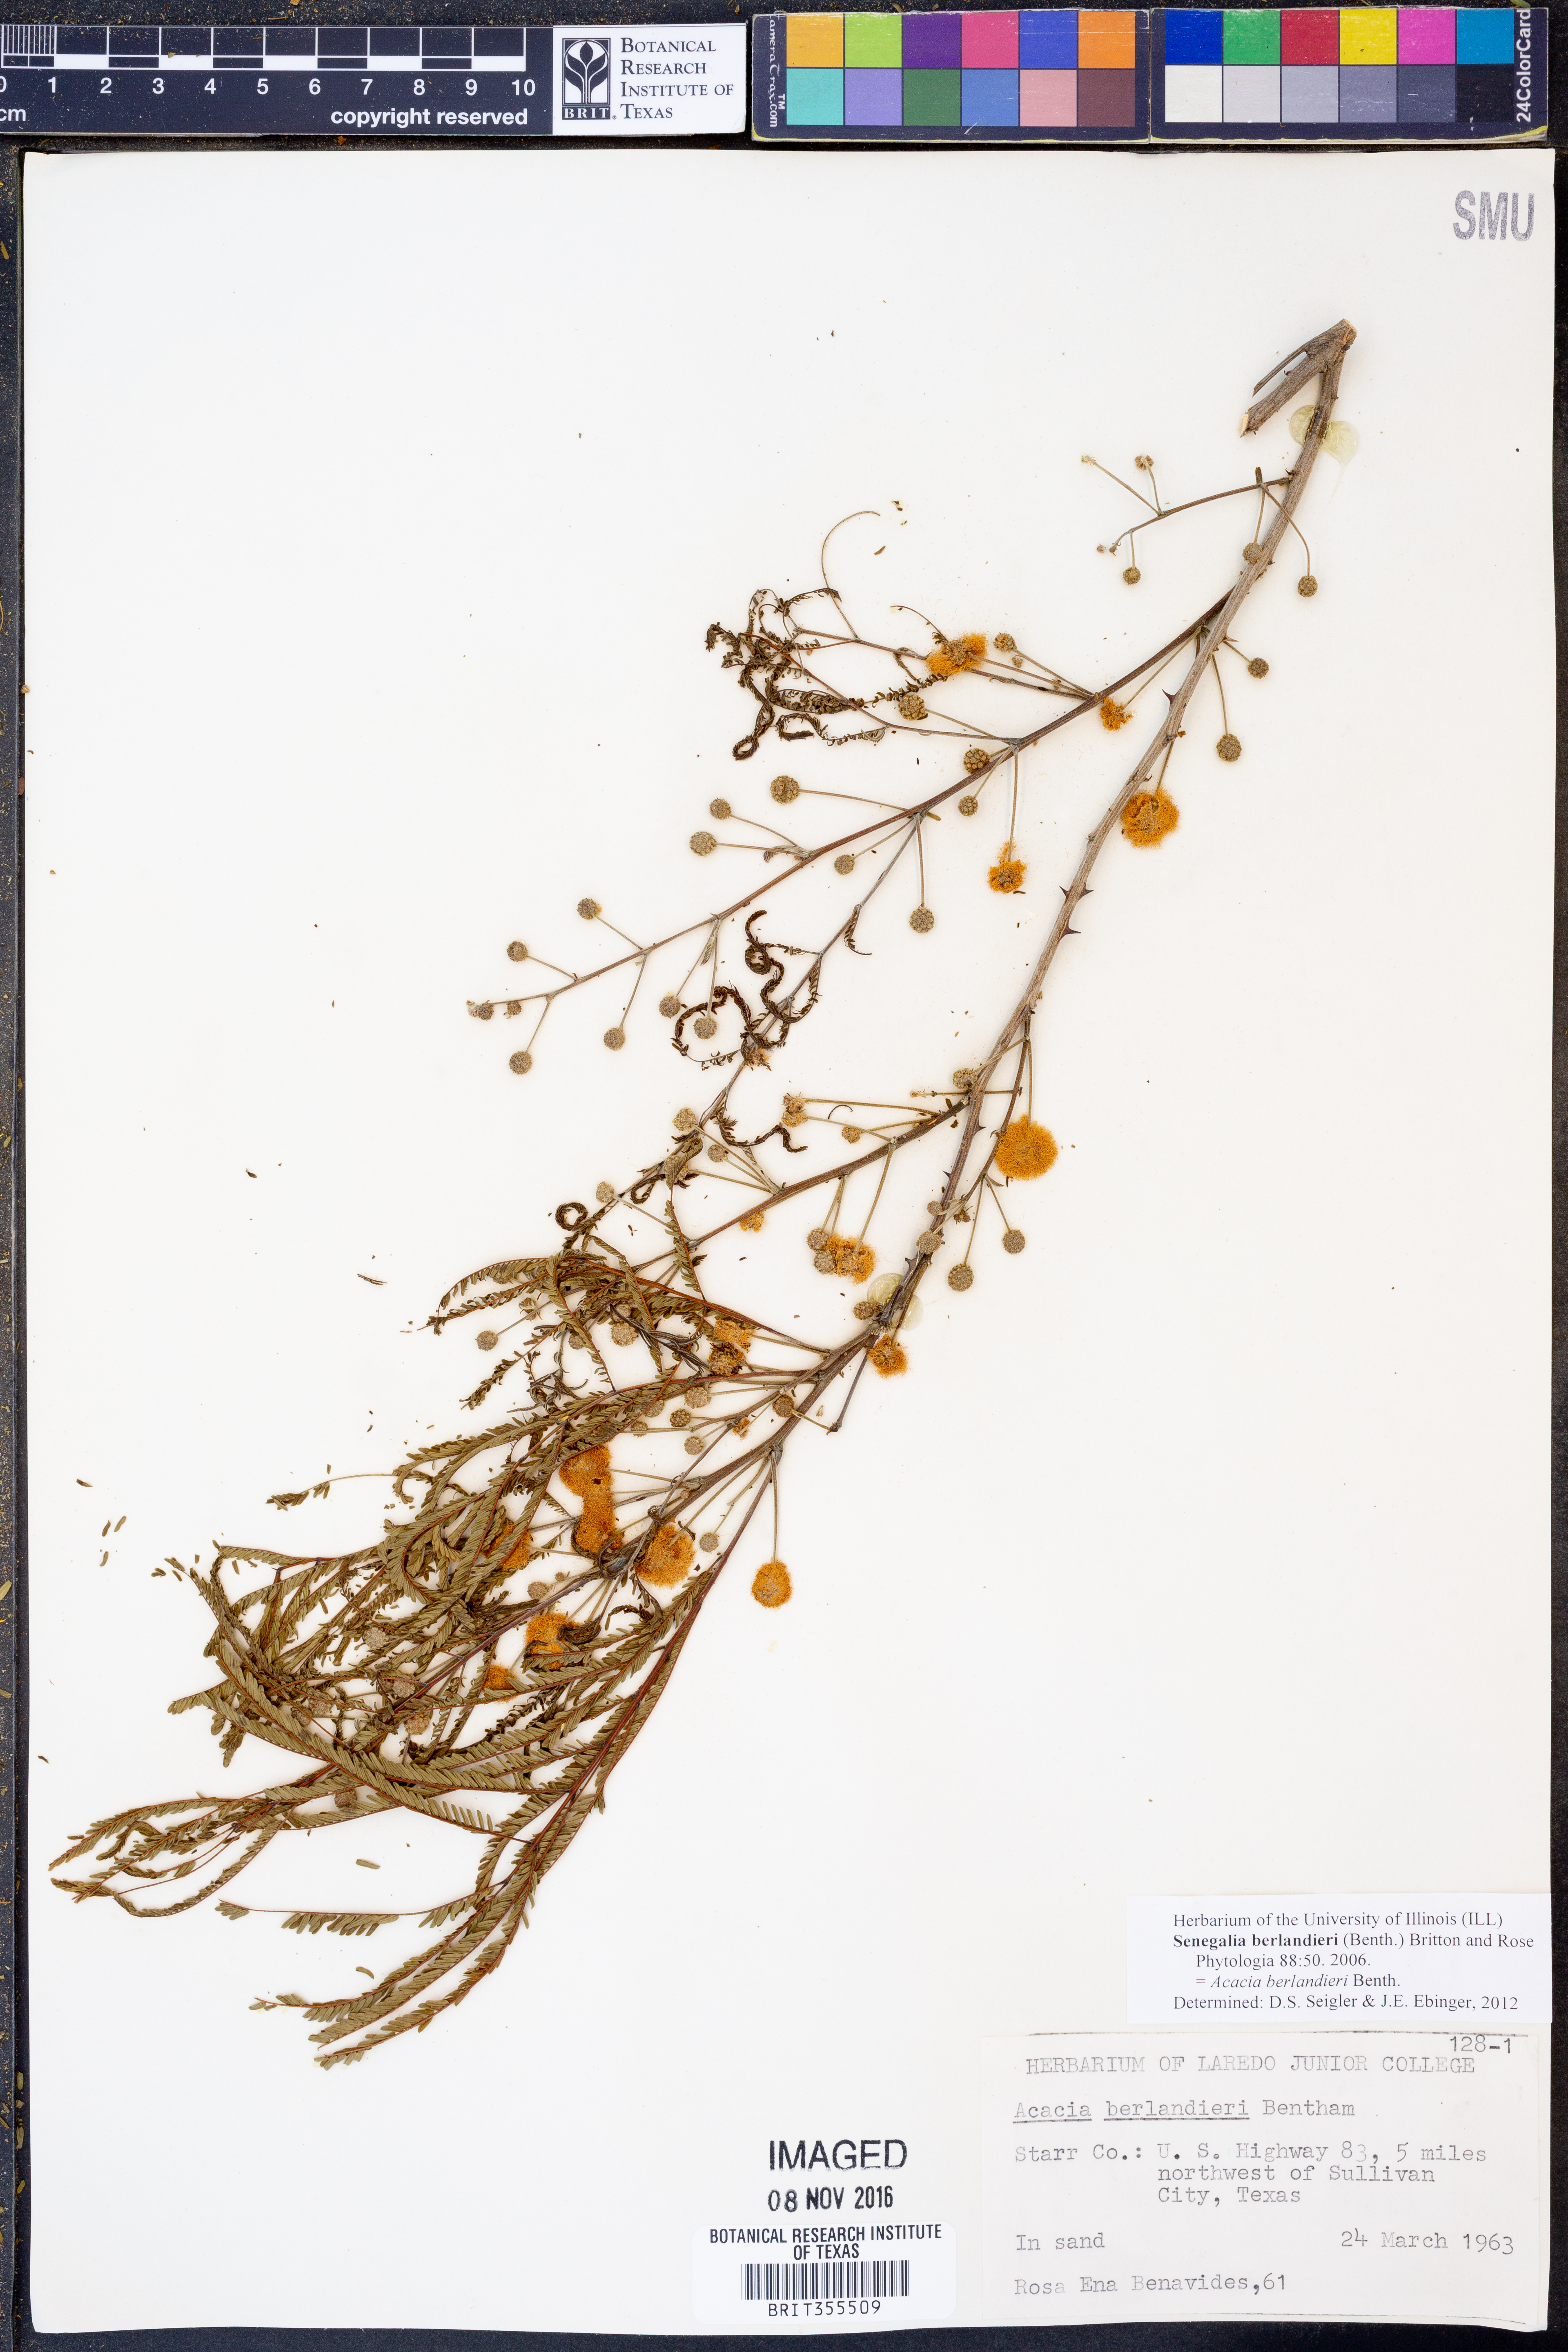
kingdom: Plantae
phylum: Tracheophyta
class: Magnoliopsida
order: Fabales
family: Fabaceae
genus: Senegalia
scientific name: Senegalia berlandieri
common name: Berlandier acacia
